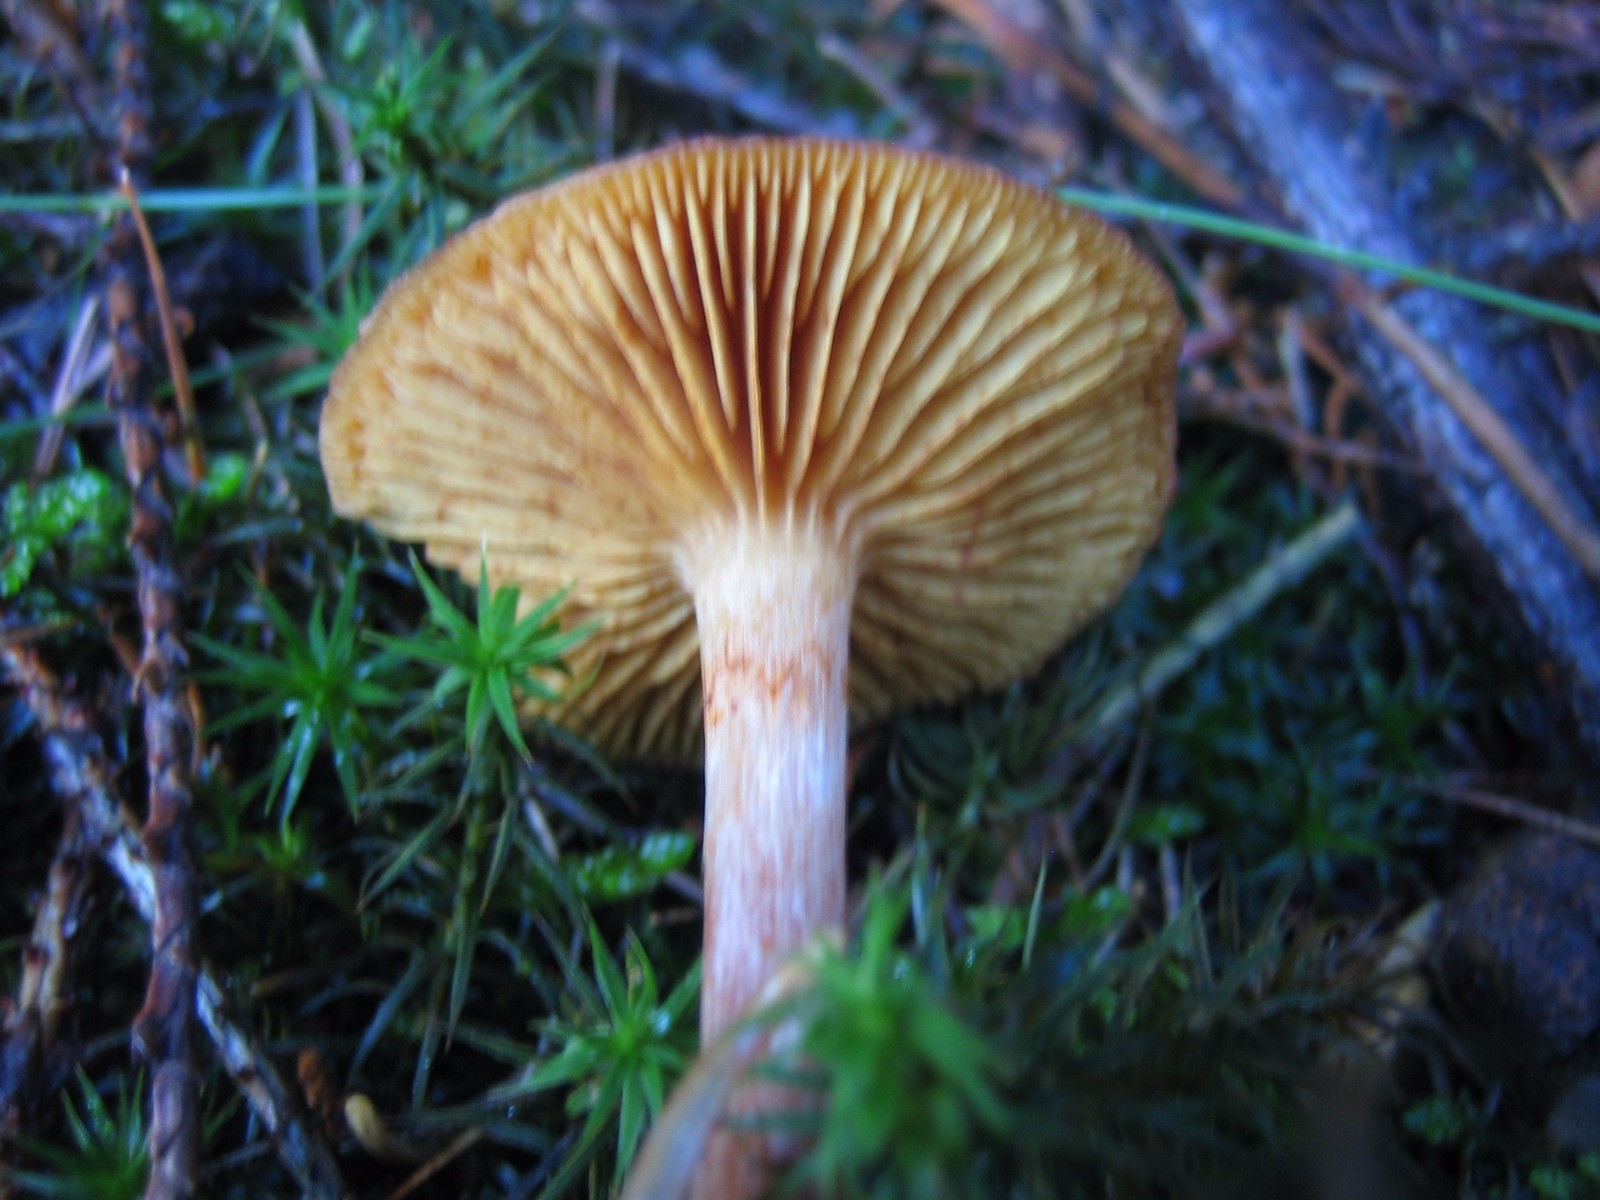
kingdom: Fungi
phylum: Basidiomycota
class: Agaricomycetes
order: Agaricales
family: Hymenogastraceae
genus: Gymnopilus
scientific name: Gymnopilus penetrans
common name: plettet flammehat
